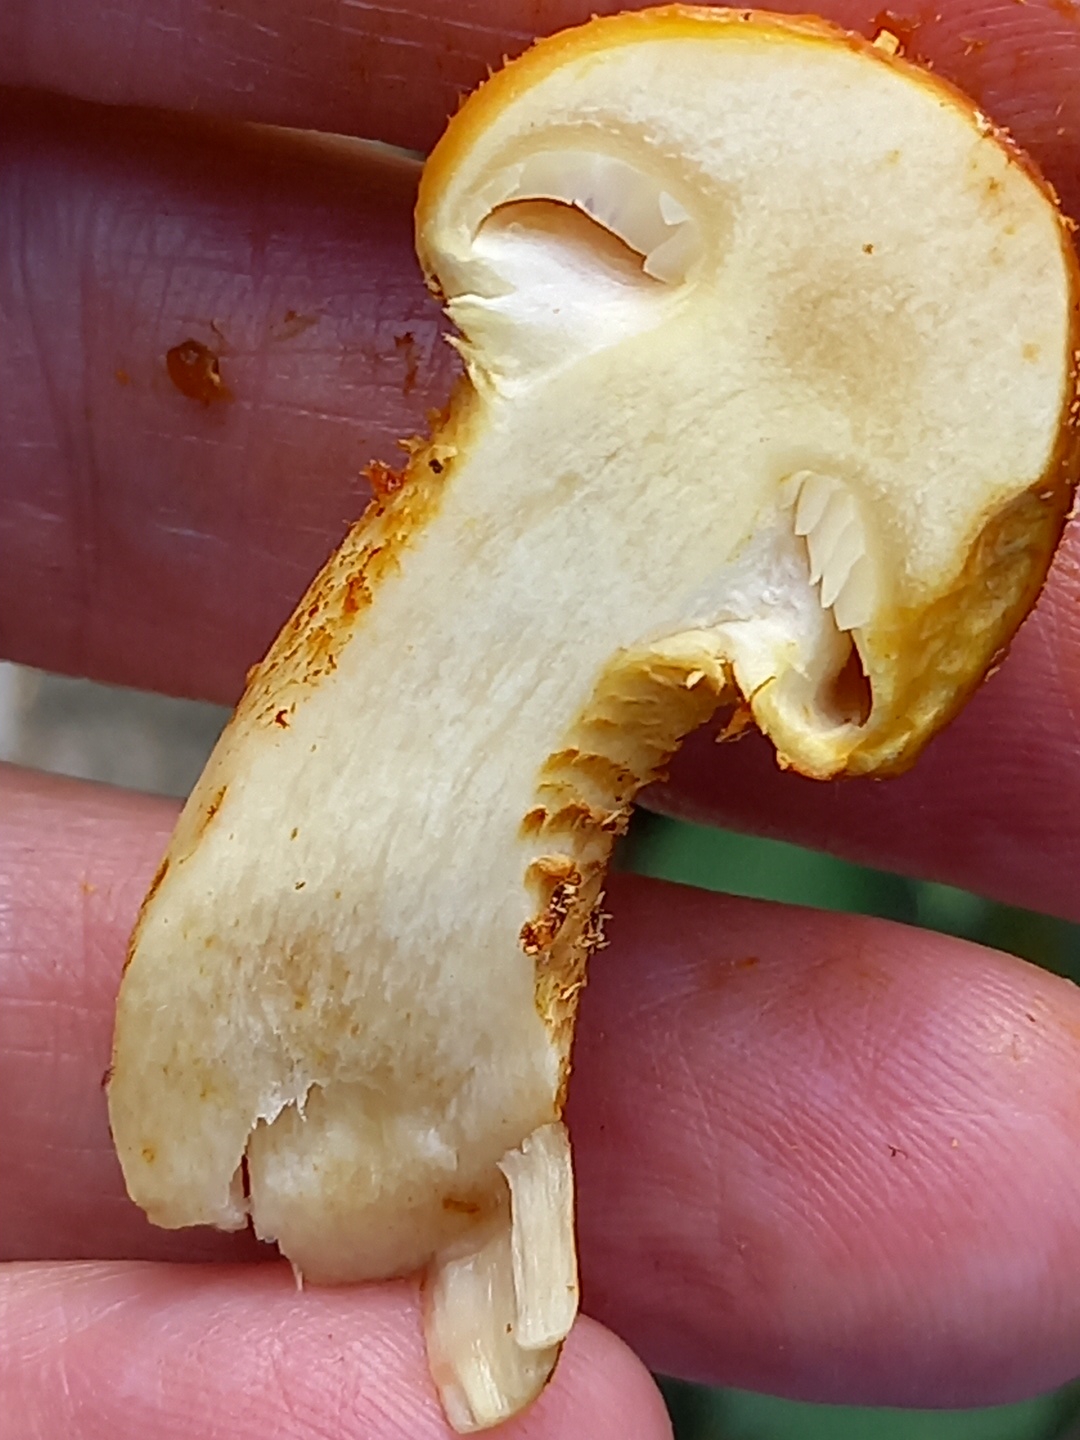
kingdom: Fungi
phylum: Basidiomycota
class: Agaricomycetes
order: Agaricales
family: Strophariaceae
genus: Pholiota
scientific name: Pholiota adiposa
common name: højtsiddende skælhat
